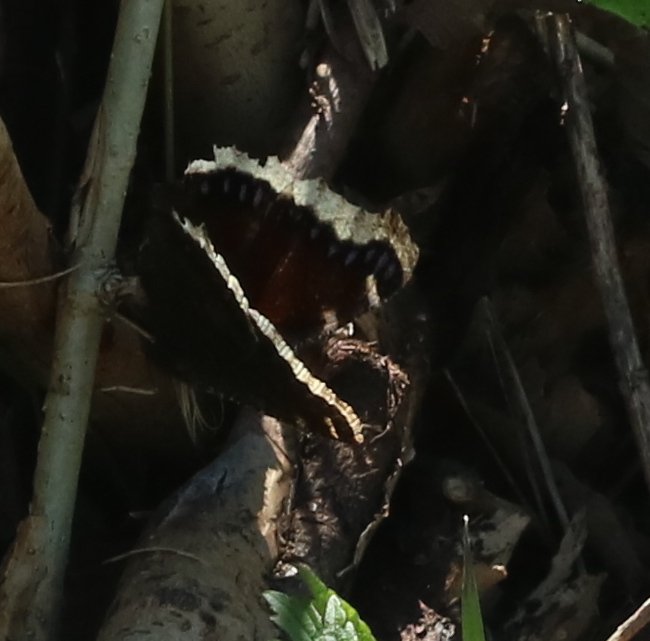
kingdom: Animalia
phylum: Arthropoda
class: Insecta
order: Lepidoptera
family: Nymphalidae
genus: Nymphalis
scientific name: Nymphalis antiopa
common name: Mourning Cloak
